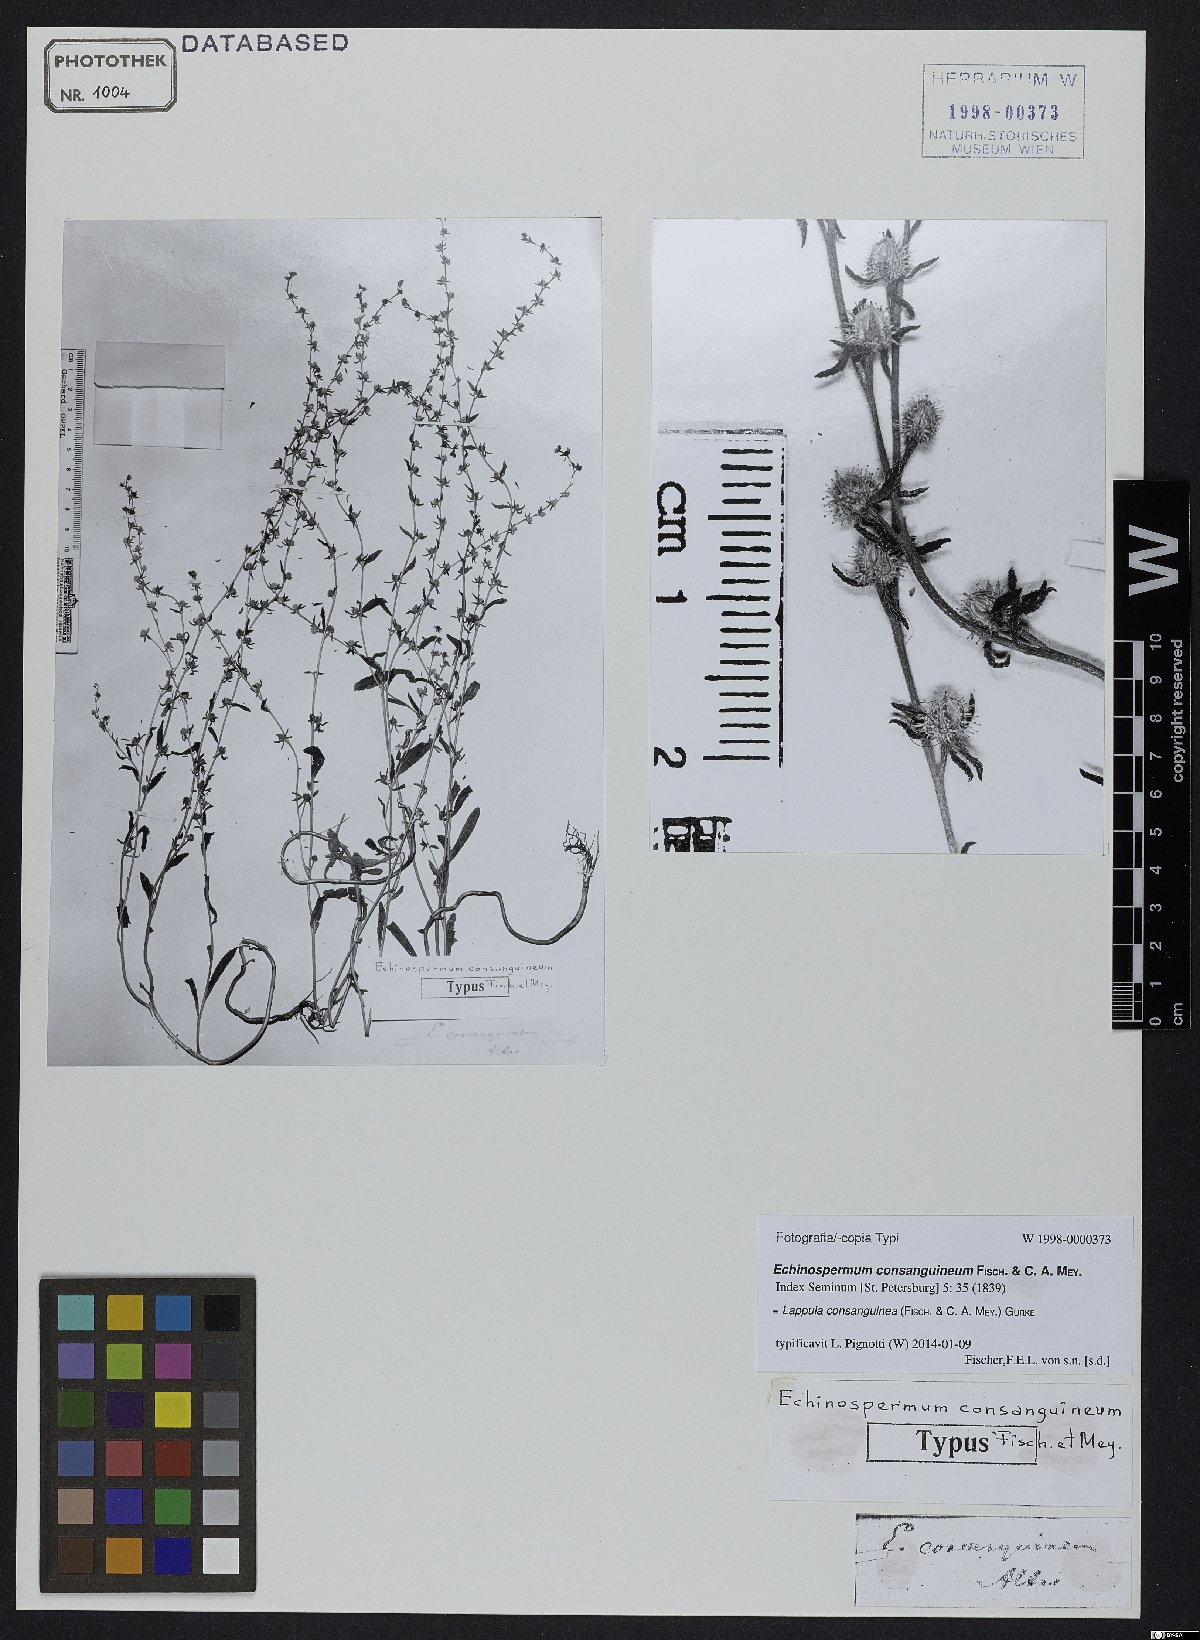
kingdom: Plantae
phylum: Tracheophyta
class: Magnoliopsida
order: Boraginales
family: Boraginaceae
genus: Lappula
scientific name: Lappula squarrosa
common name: European stickseed
